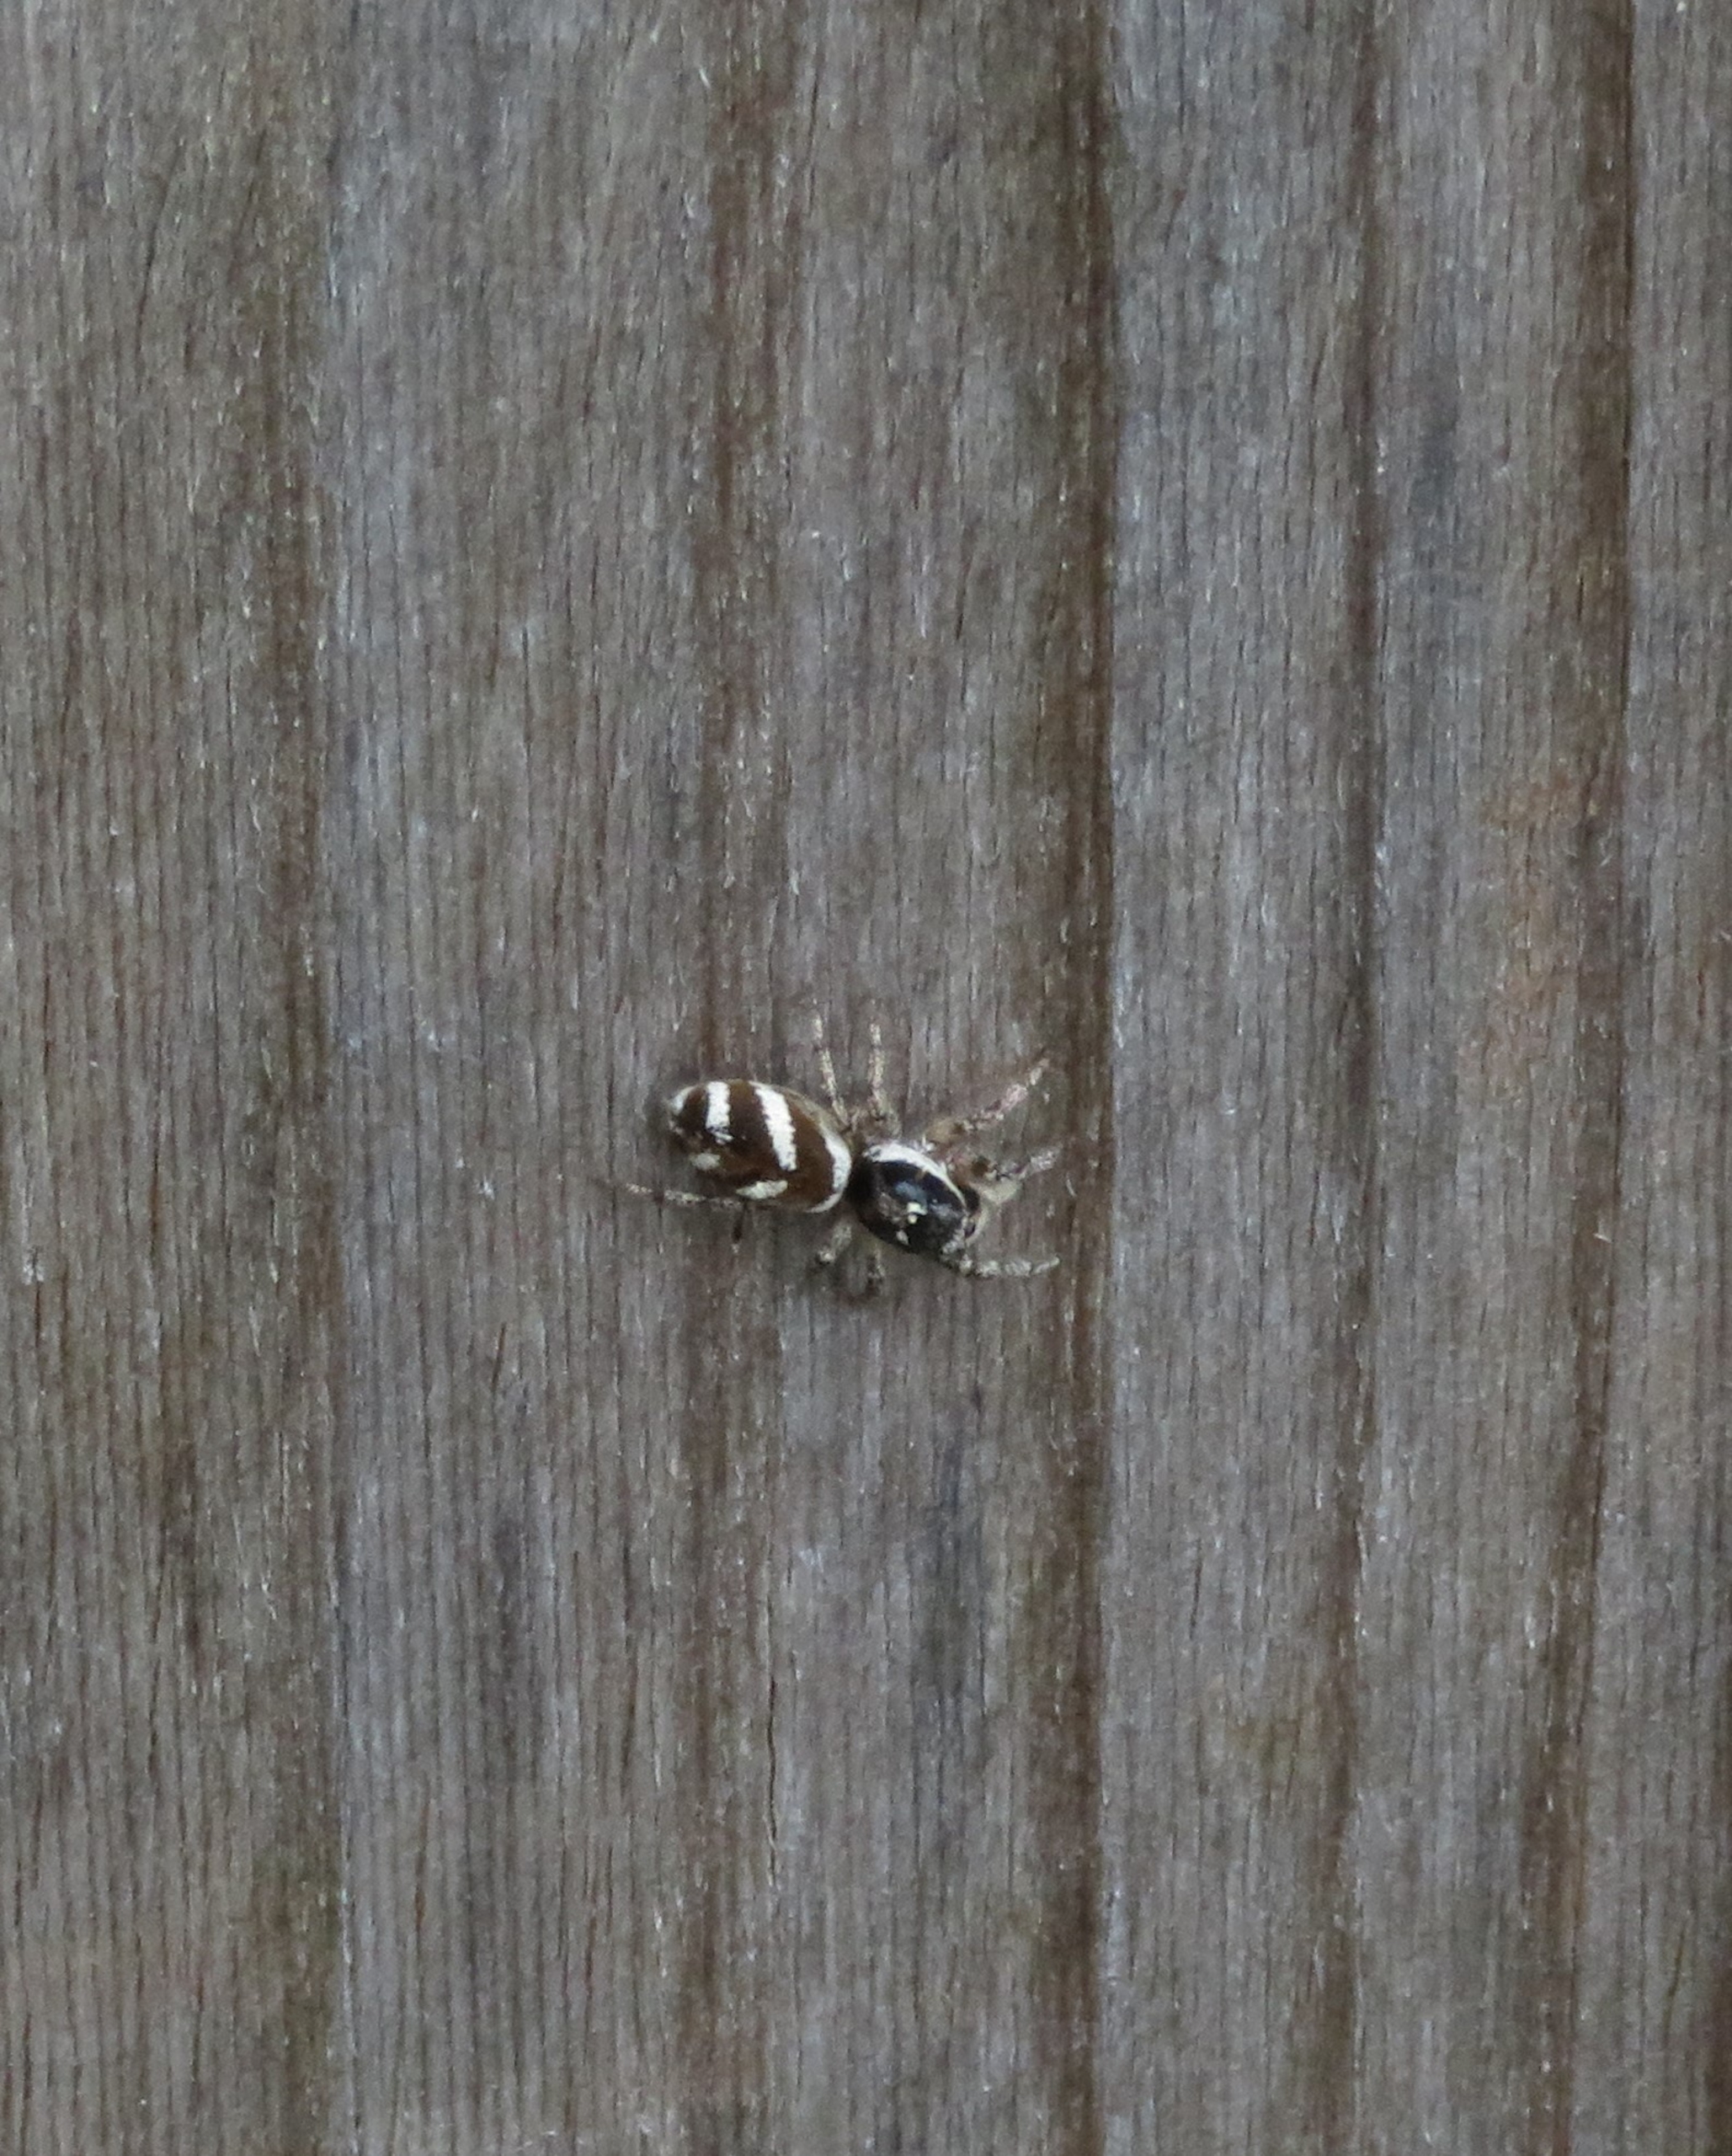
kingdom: Animalia
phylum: Arthropoda
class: Arachnida
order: Araneae
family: Salticidae
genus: Salticus
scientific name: Salticus scenicus
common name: Almindelig zebraedderkop
